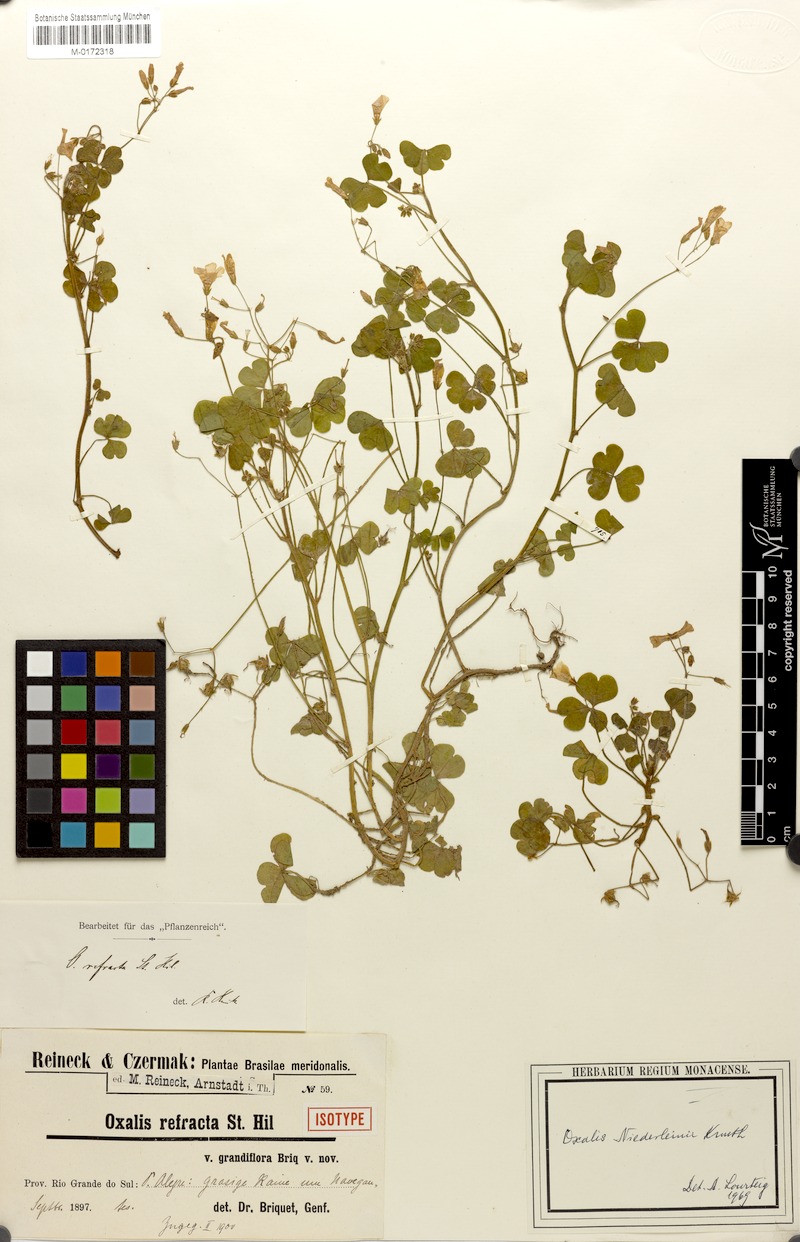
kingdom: Plantae
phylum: Tracheophyta
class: Magnoliopsida
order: Oxalidales
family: Oxalidaceae
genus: Oxalis
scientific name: Oxalis niederleinii
